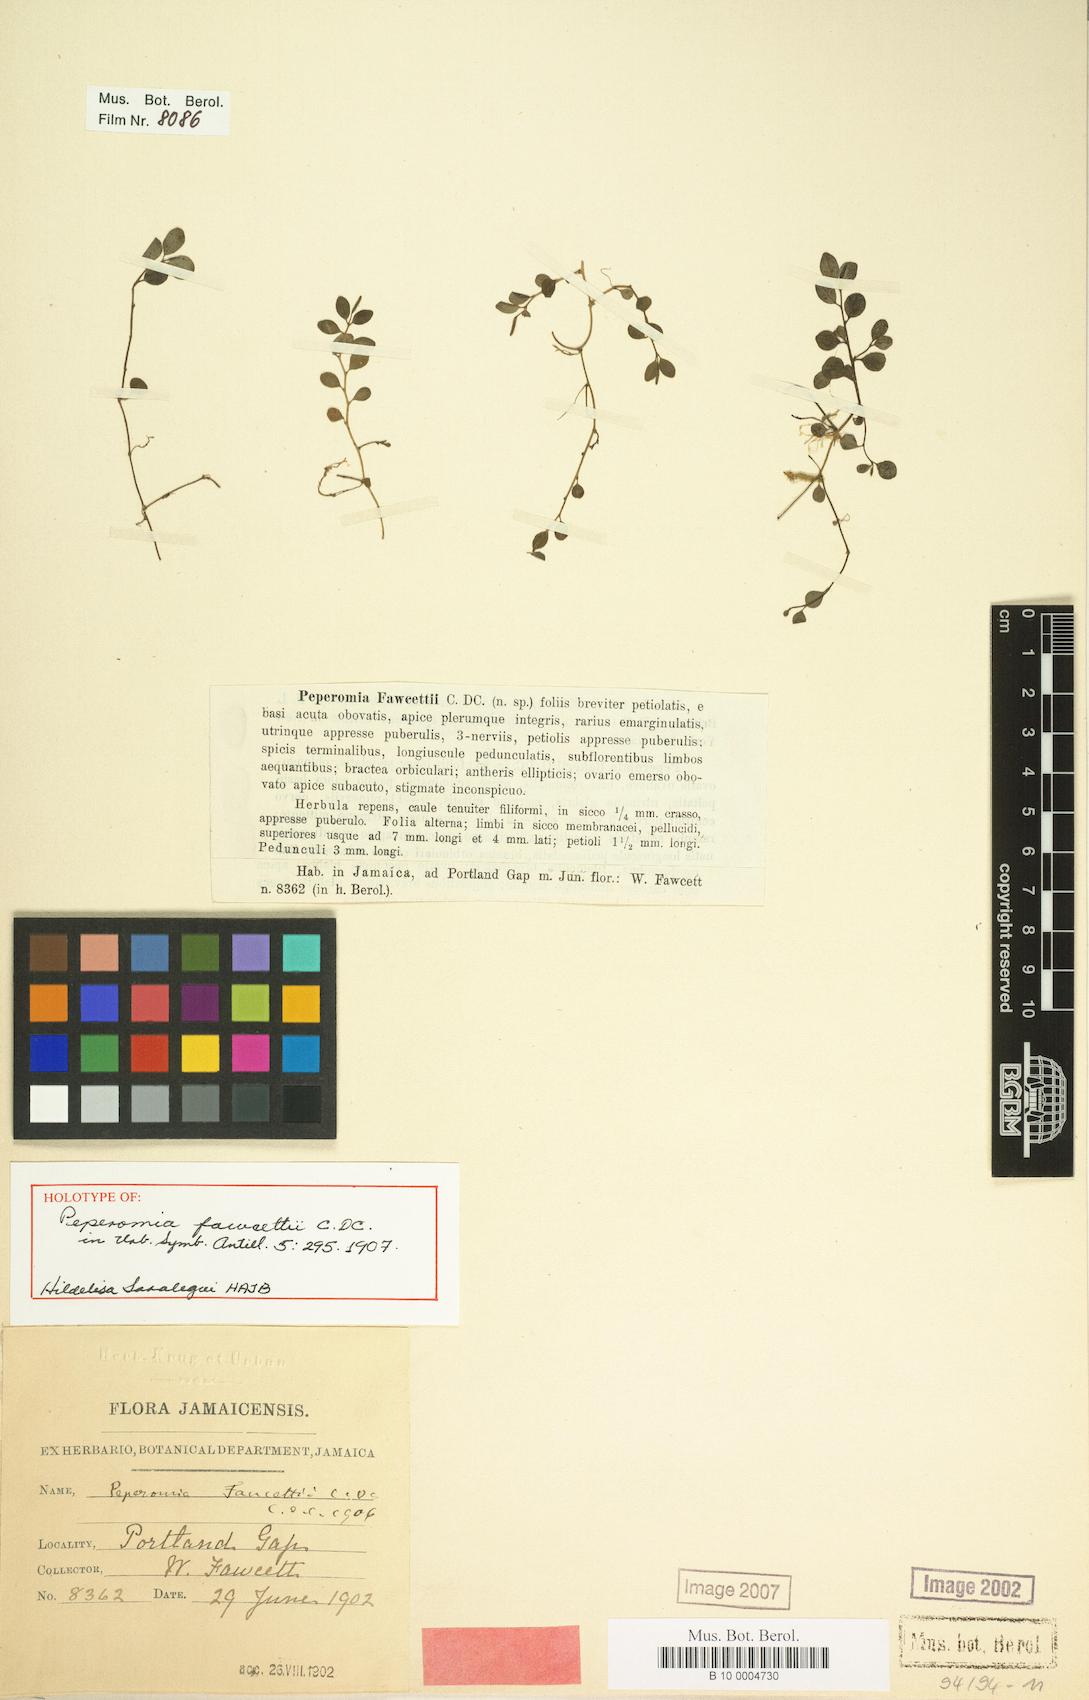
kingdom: Plantae
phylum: Tracheophyta
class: Magnoliopsida
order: Piperales
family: Piperaceae
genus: Peperomia
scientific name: Peperomia fawcettii
